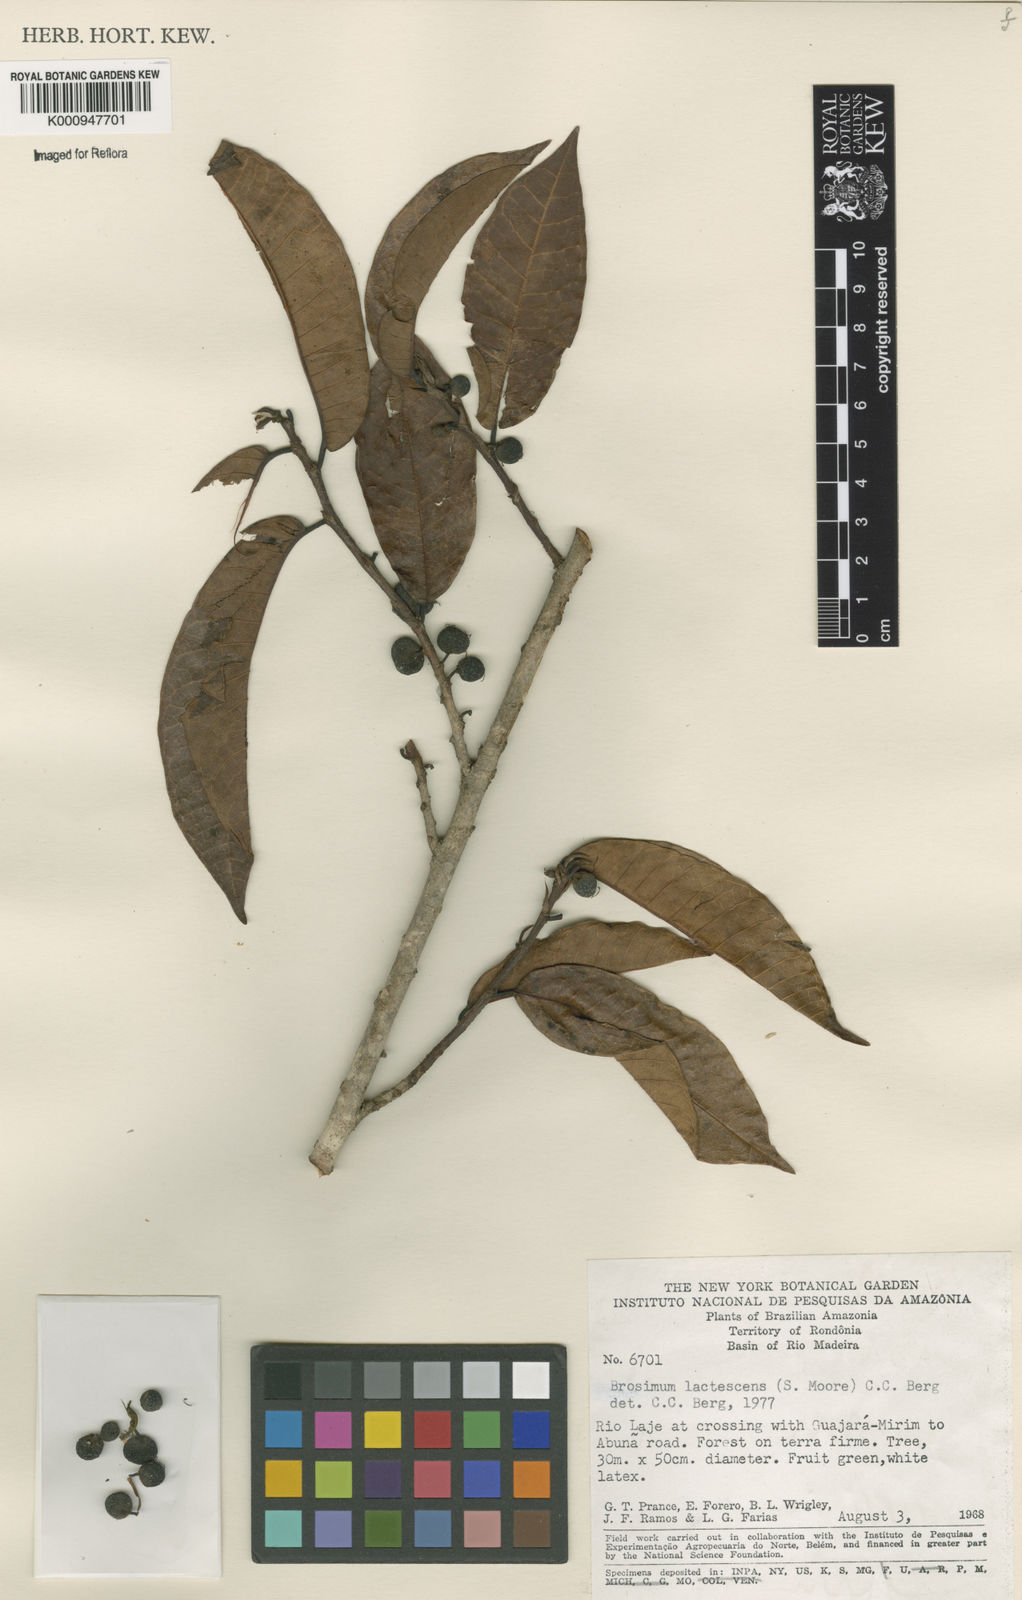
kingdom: Plantae
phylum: Tracheophyta
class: Magnoliopsida
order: Rosales
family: Moraceae
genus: Brosimum
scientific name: Brosimum lactescens
